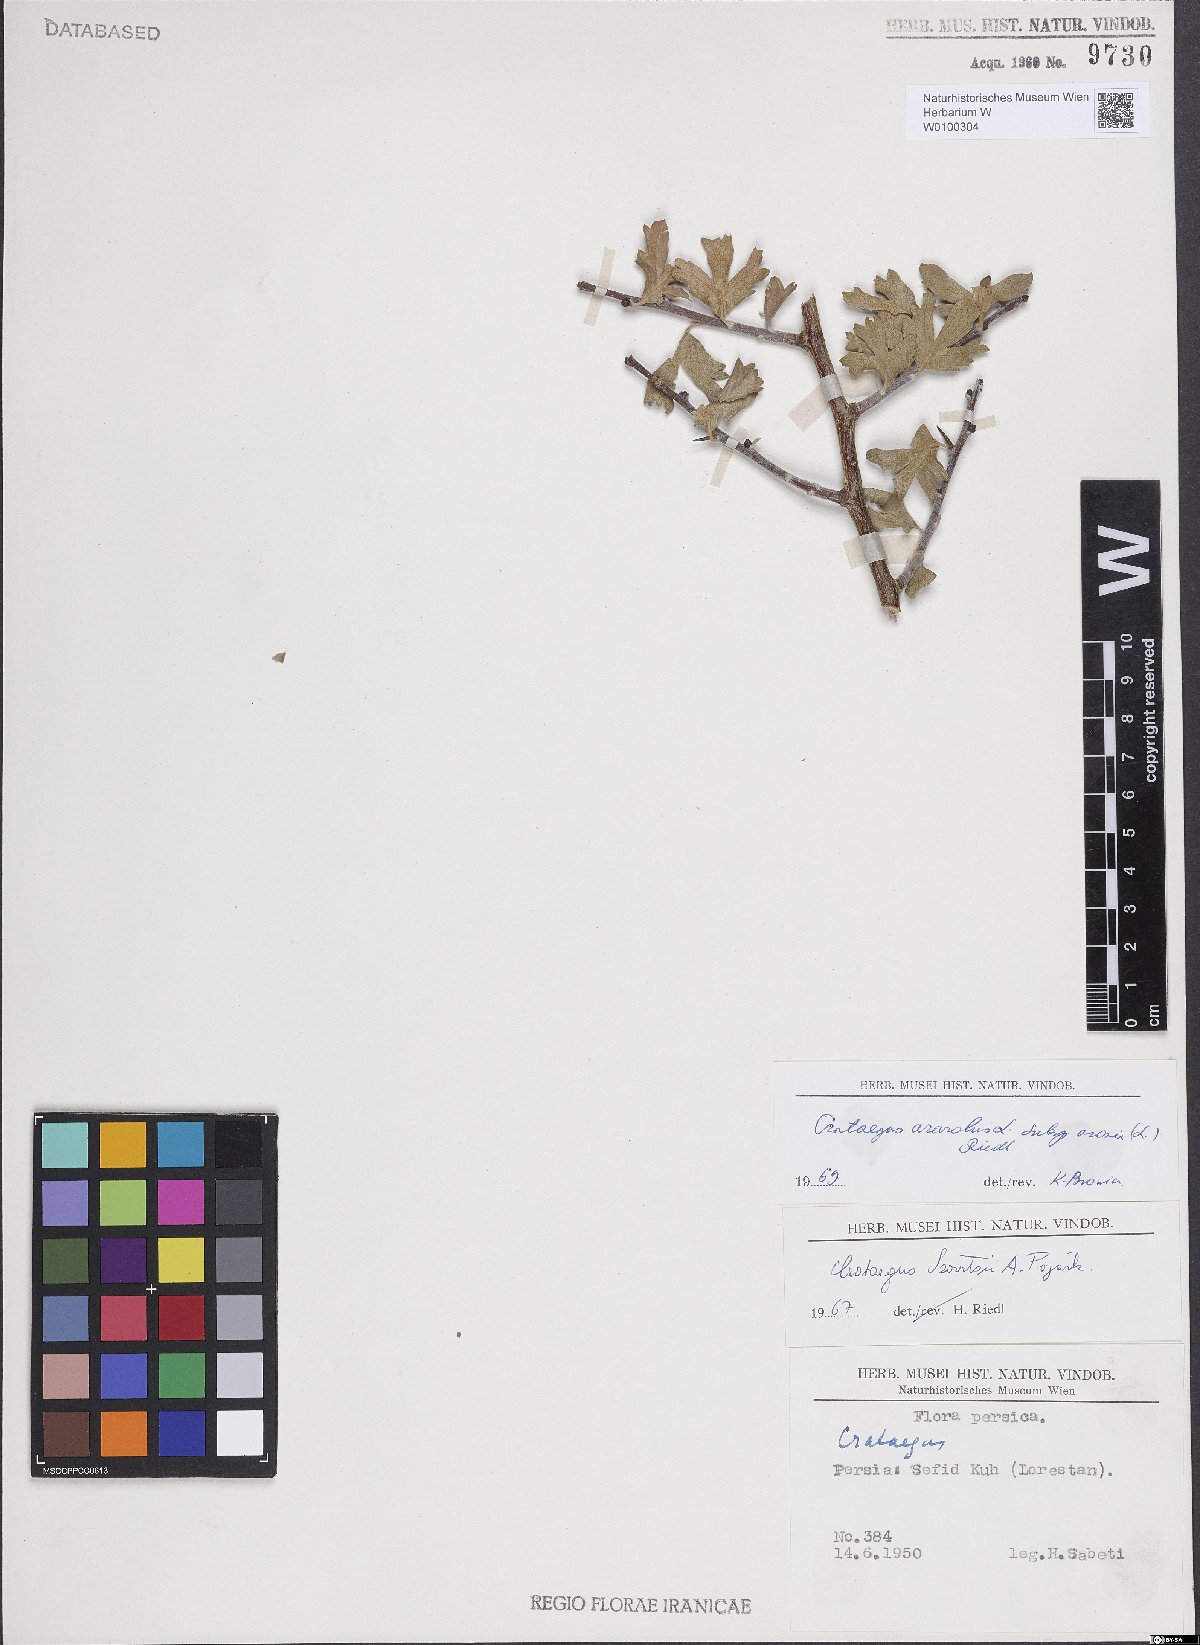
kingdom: Plantae
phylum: Tracheophyta
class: Magnoliopsida
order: Rosales
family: Rosaceae
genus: Crataegus
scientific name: Crataegus azarolus
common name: Azarole
